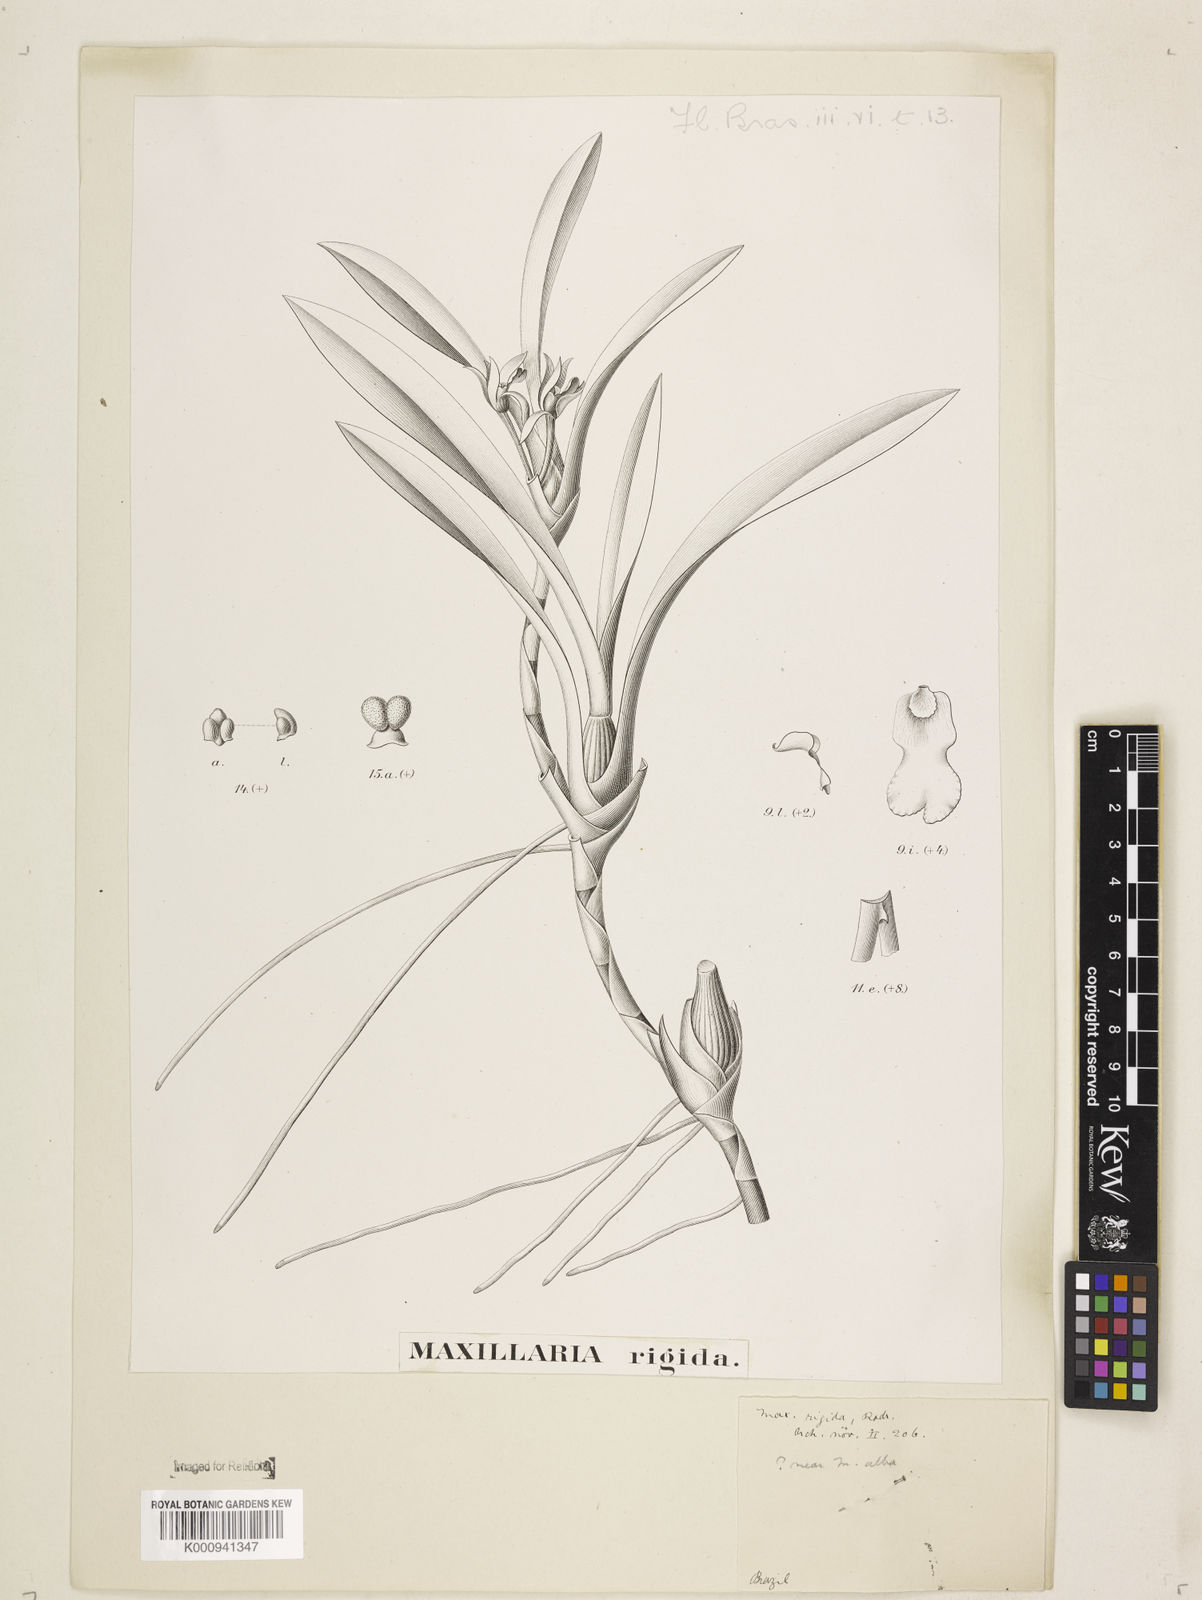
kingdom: Plantae
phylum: Tracheophyta
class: Liliopsida
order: Asparagales
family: Orchidaceae
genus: Maxillaria
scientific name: Maxillaria rigida
